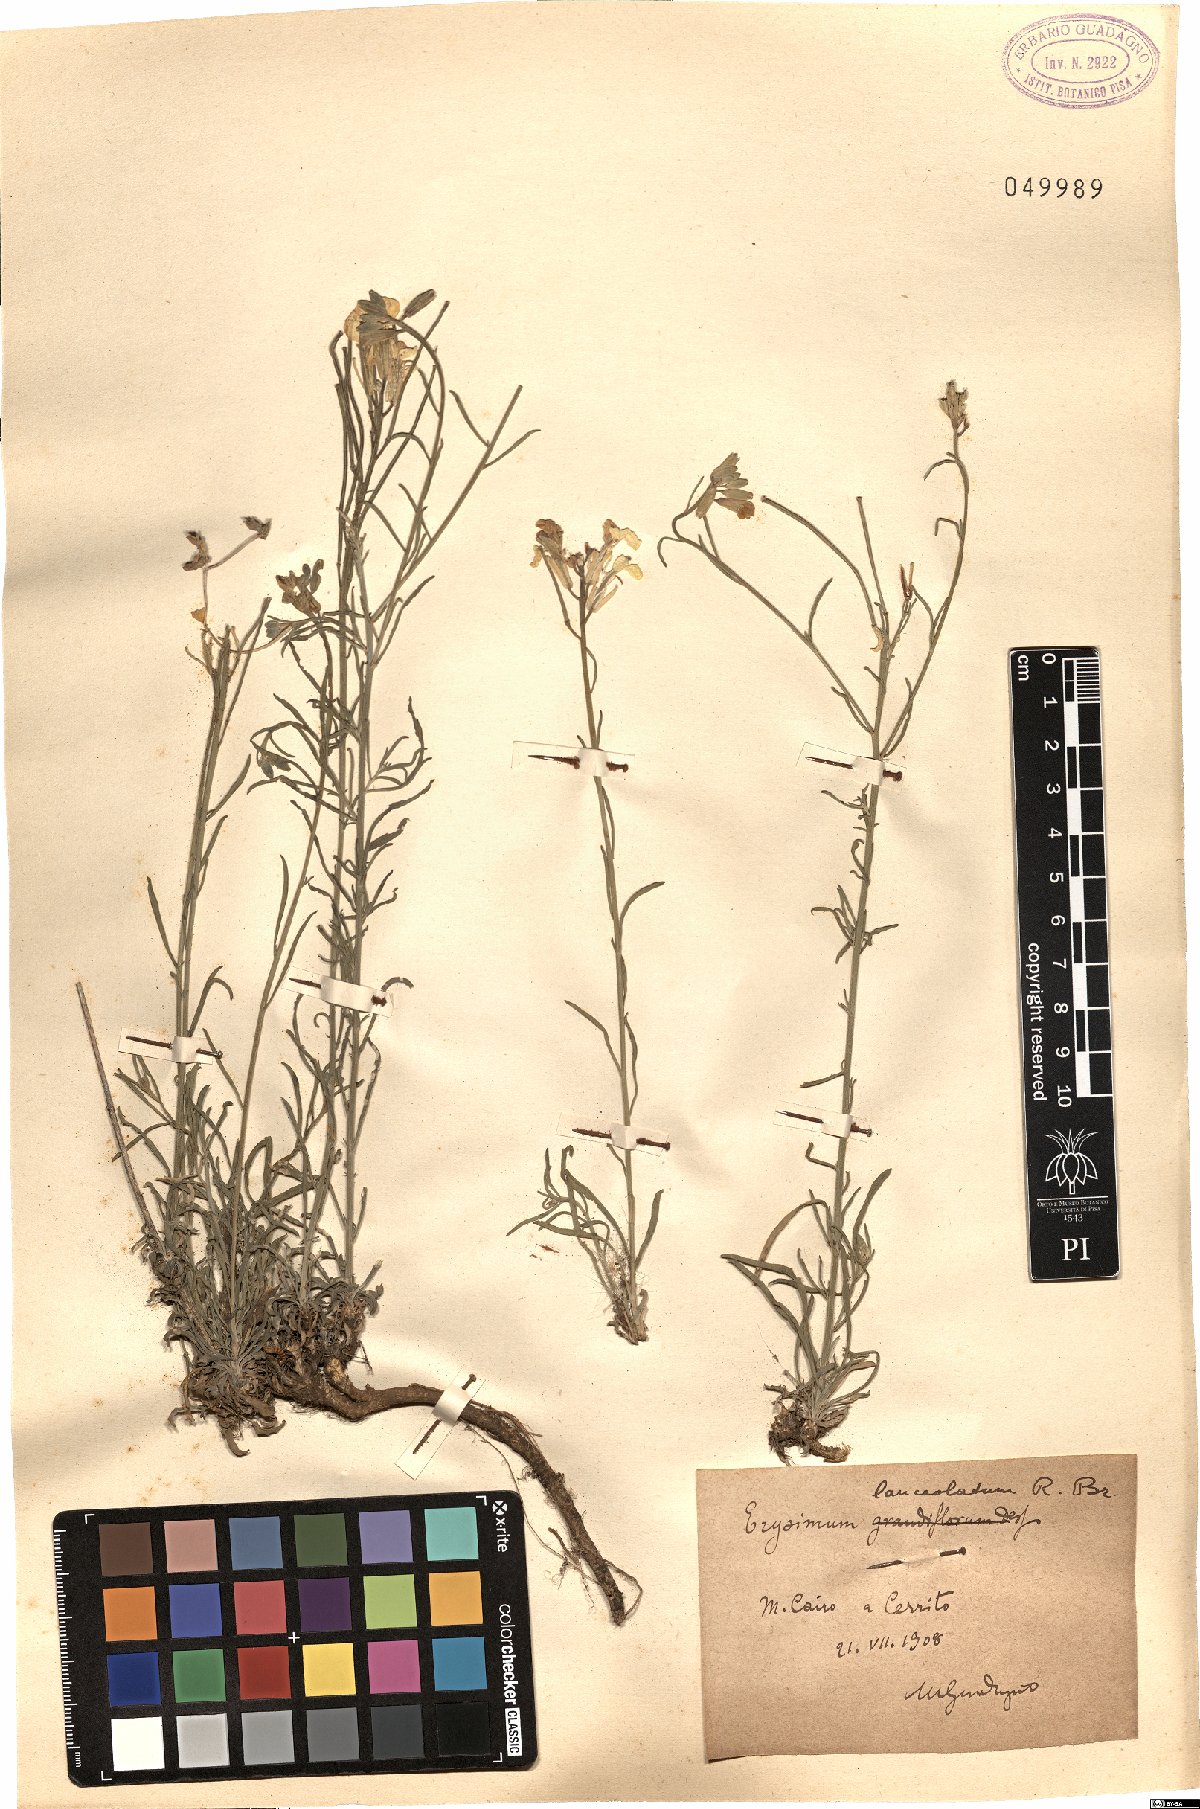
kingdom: Plantae
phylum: Tracheophyta
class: Magnoliopsida
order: Brassicales
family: Brassicaceae
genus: Erysimum
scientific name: Erysimum nevadense
